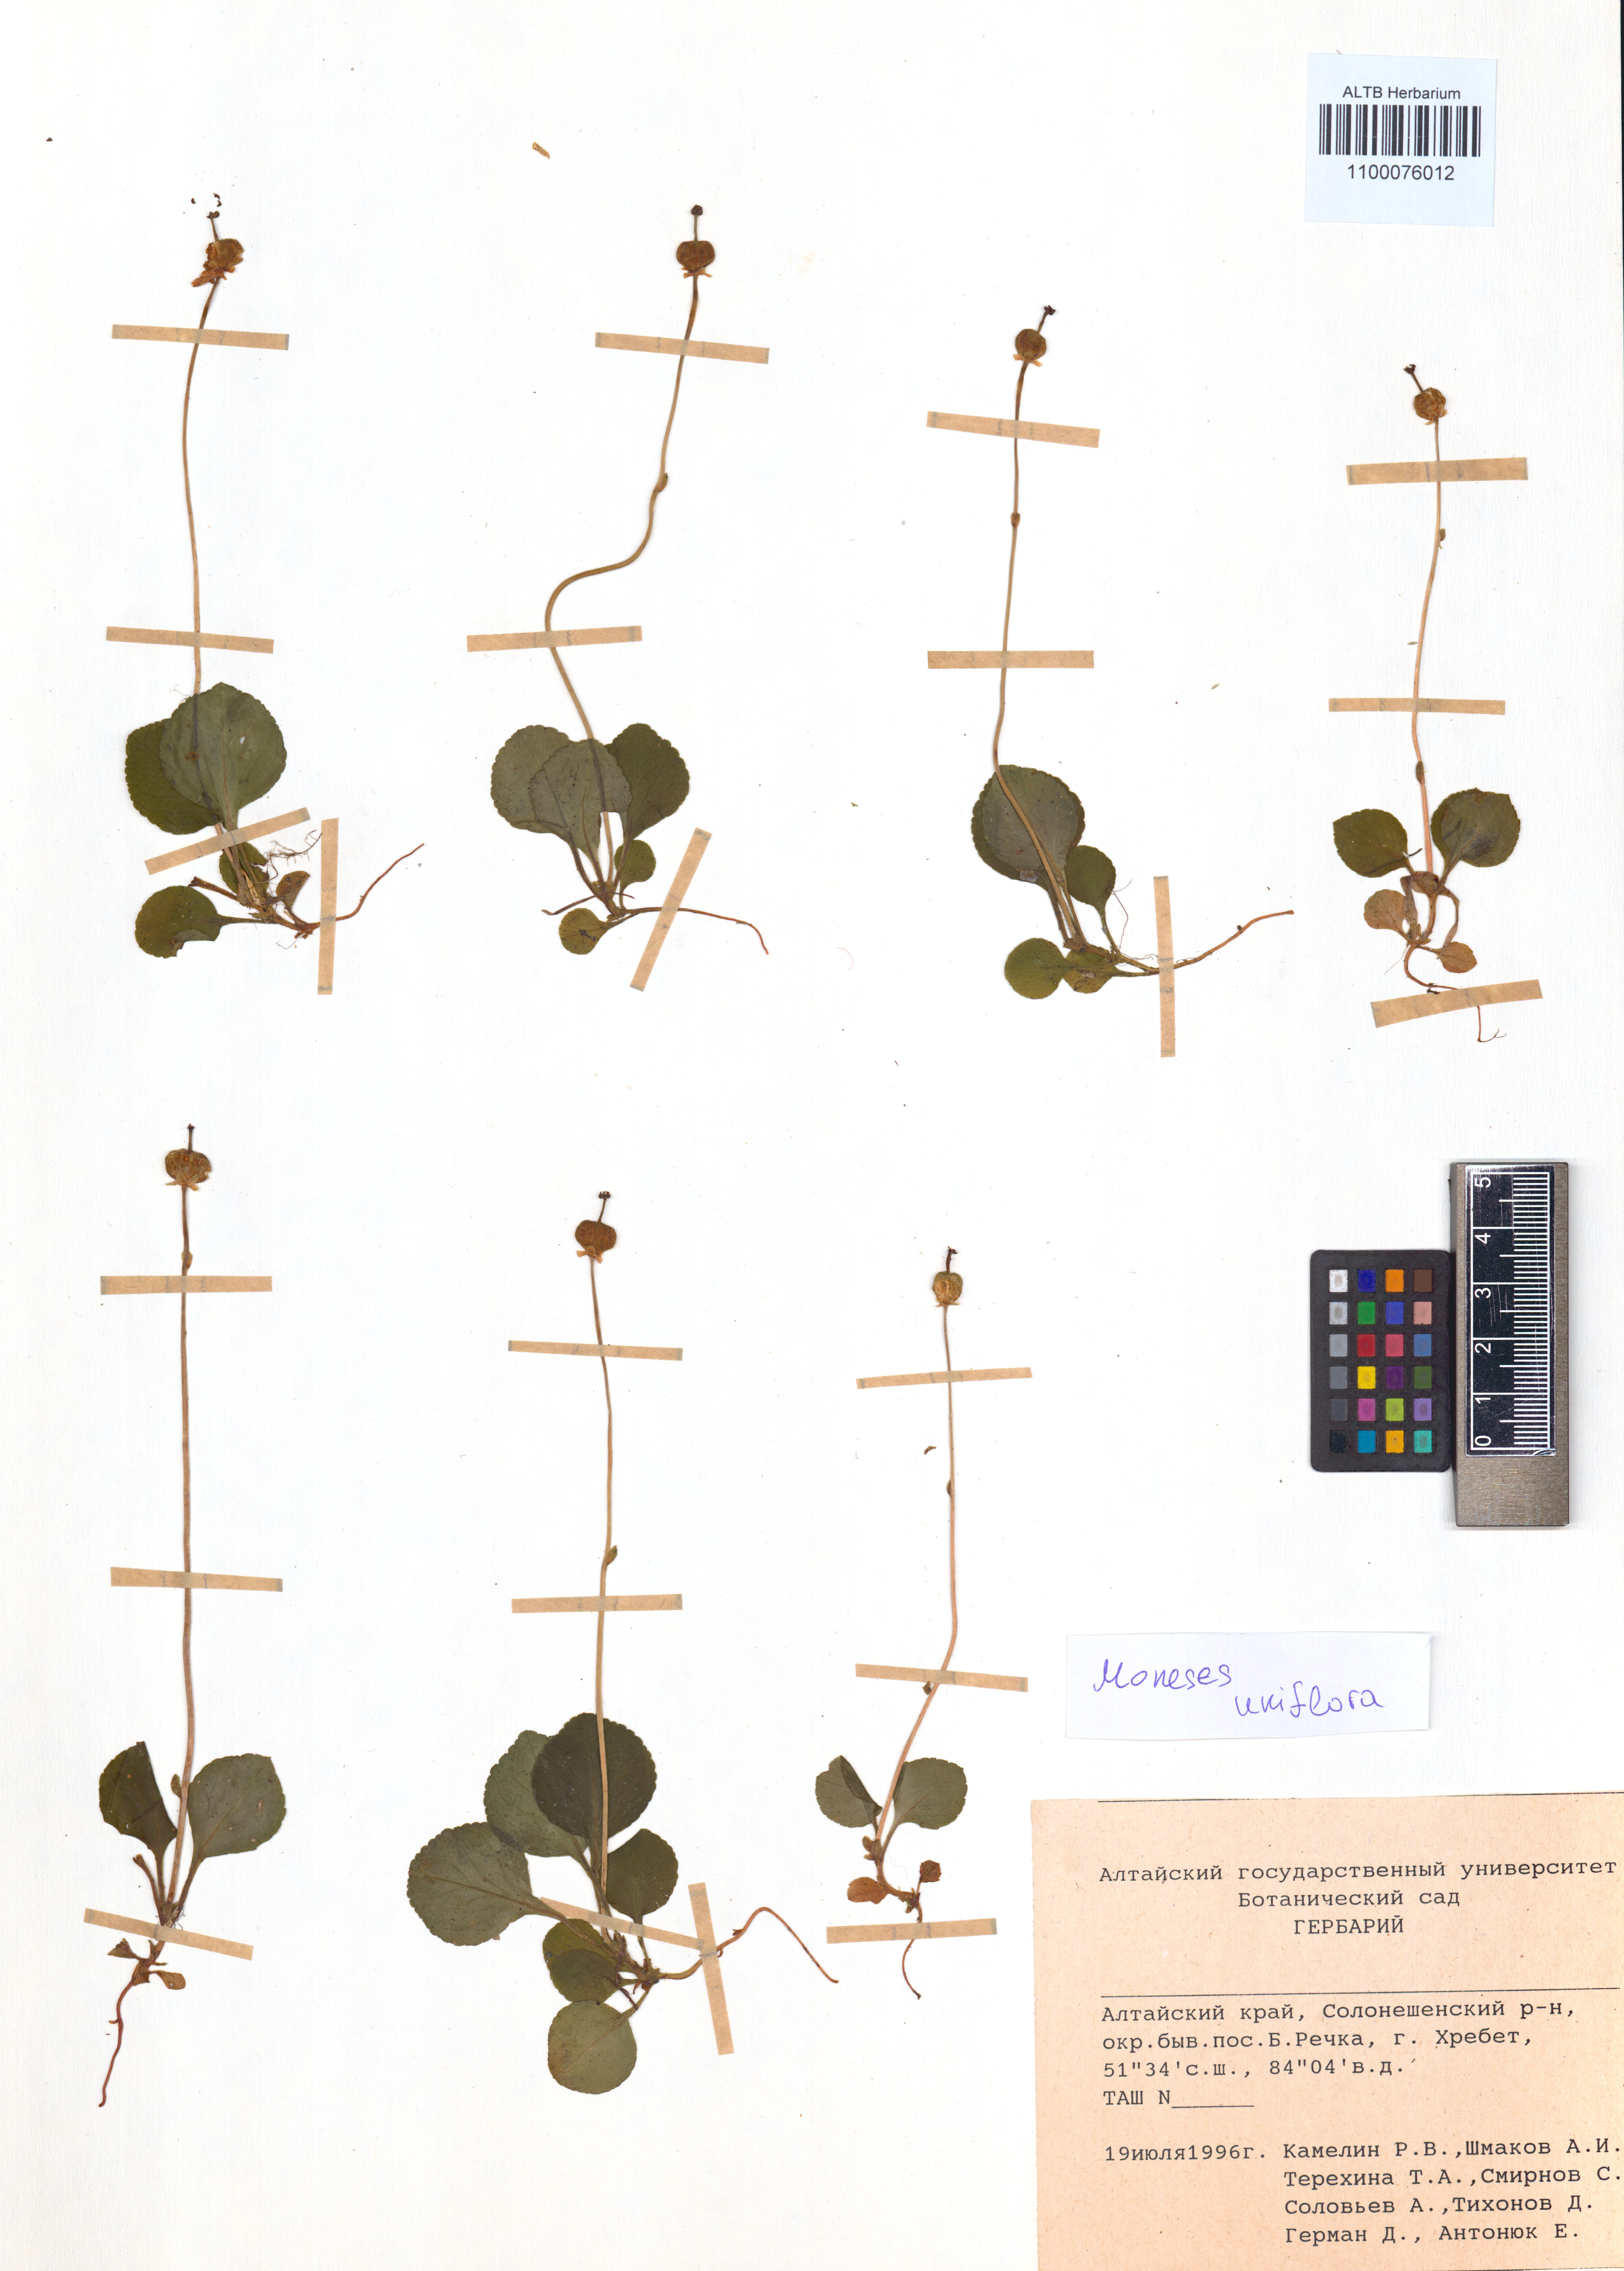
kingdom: Plantae
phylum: Tracheophyta
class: Magnoliopsida
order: Ericales
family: Ericaceae
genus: Moneses
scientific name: Moneses uniflora
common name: One-flowered wintergreen
